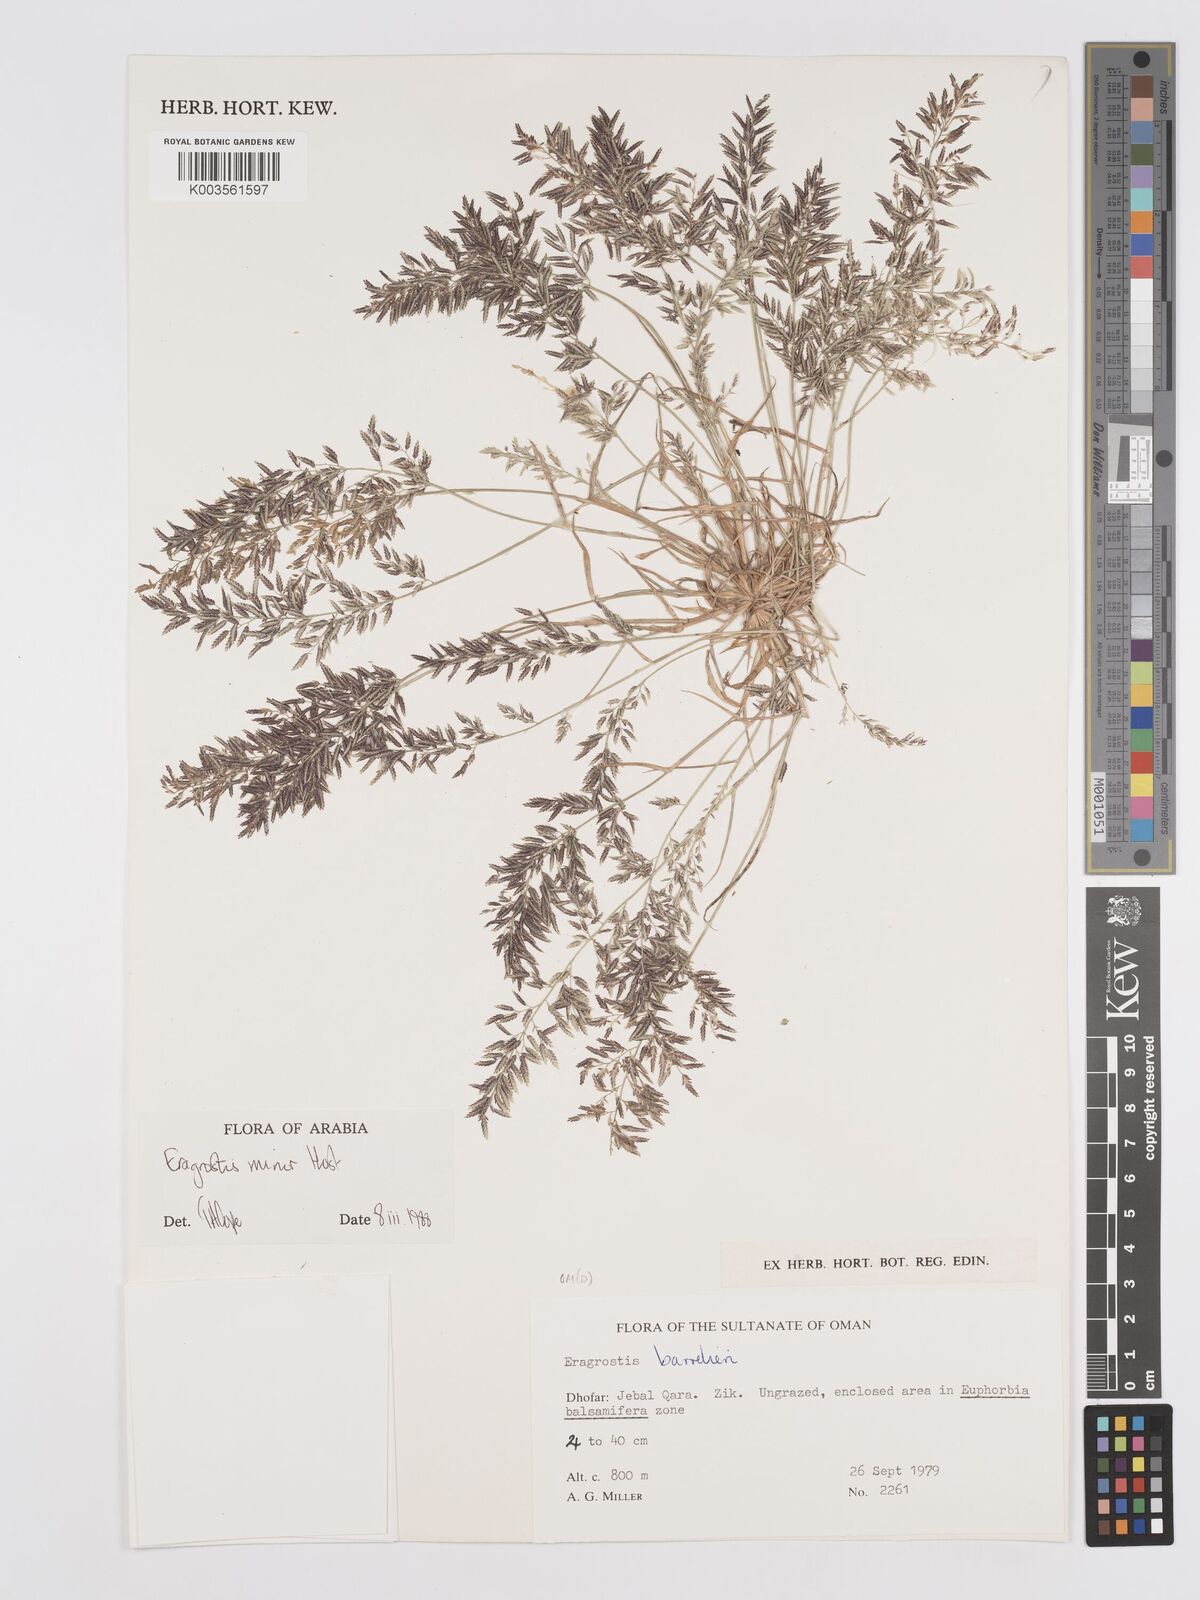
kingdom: Plantae
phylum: Tracheophyta
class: Liliopsida
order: Poales
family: Poaceae
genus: Eragrostis
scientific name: Eragrostis minor
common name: Small love-grass
